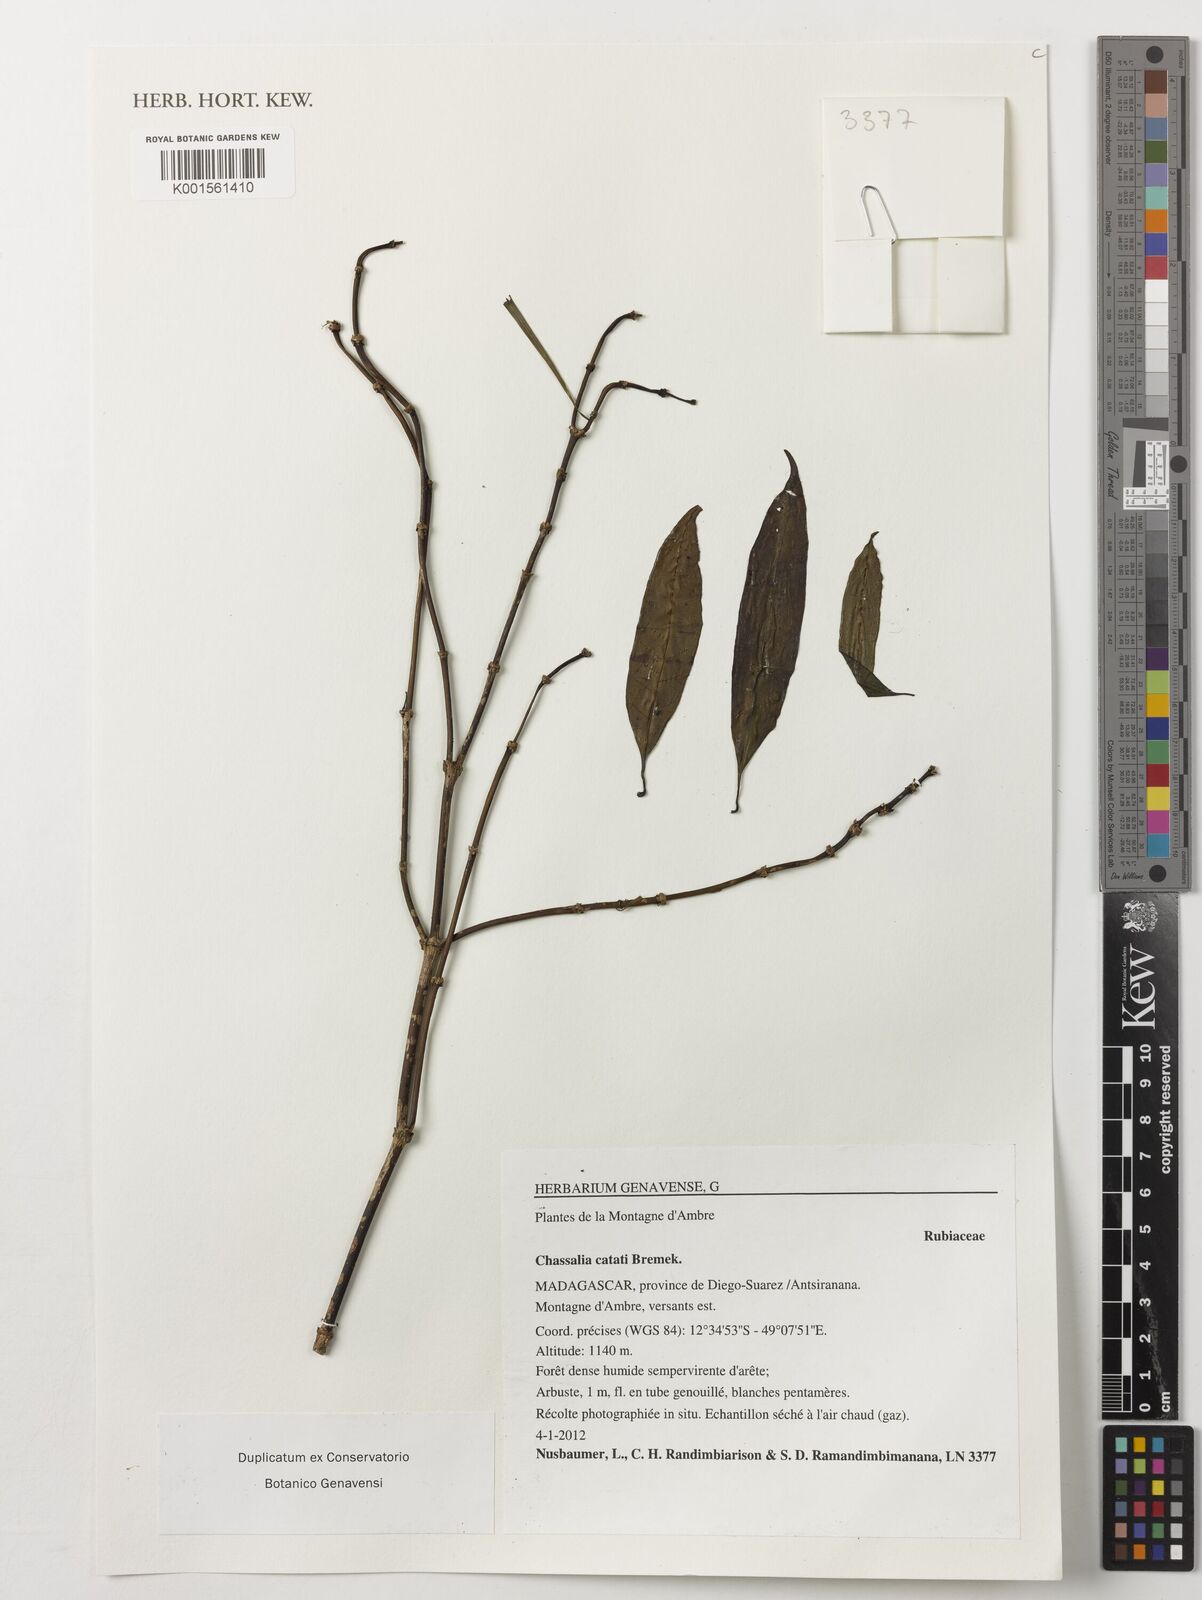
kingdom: Plantae
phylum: Tracheophyta
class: Magnoliopsida
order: Gentianales
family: Rubiaceae
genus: Chassalia
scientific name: Chassalia catatii
